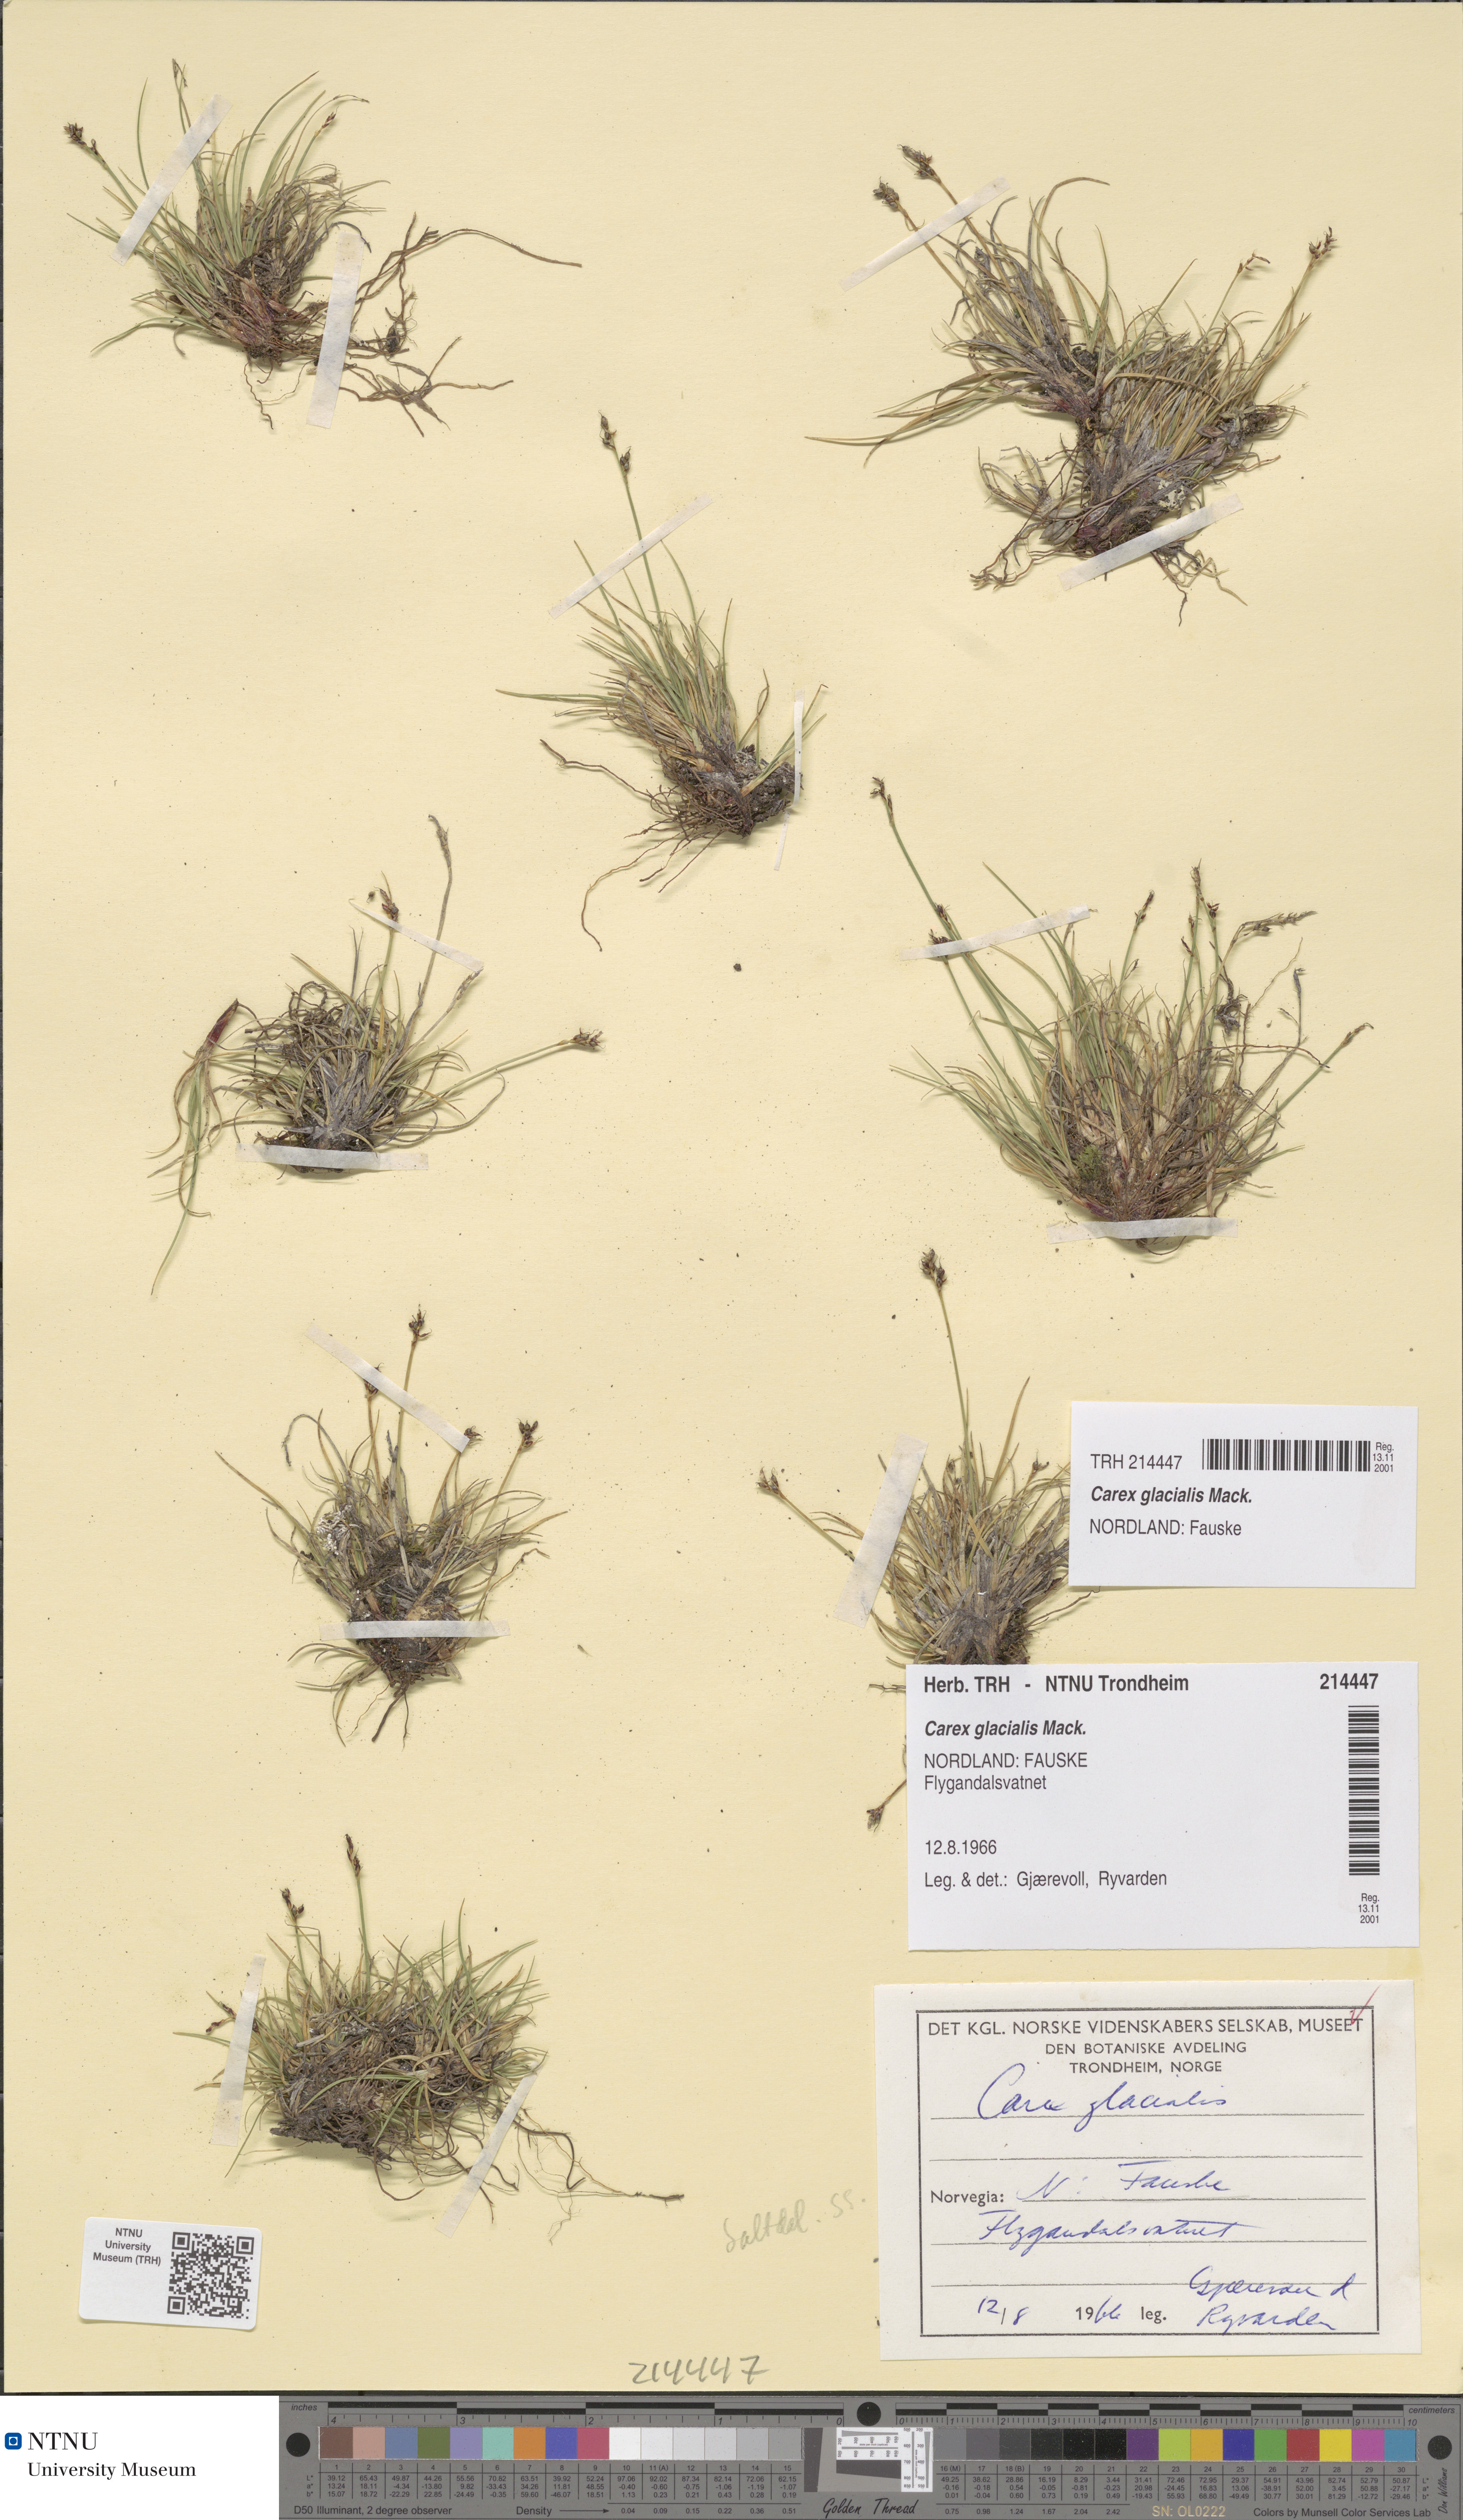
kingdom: Plantae
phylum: Tracheophyta
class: Liliopsida
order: Poales
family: Cyperaceae
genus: Carex
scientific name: Carex glacialis
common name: Newfoundland sedge
